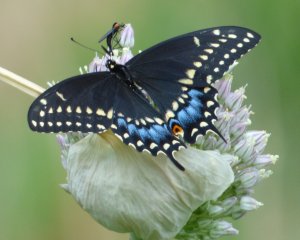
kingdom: Animalia
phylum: Arthropoda
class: Insecta
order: Lepidoptera
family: Papilionidae
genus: Papilio
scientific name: Papilio polyxenes
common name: Black Swallowtail
